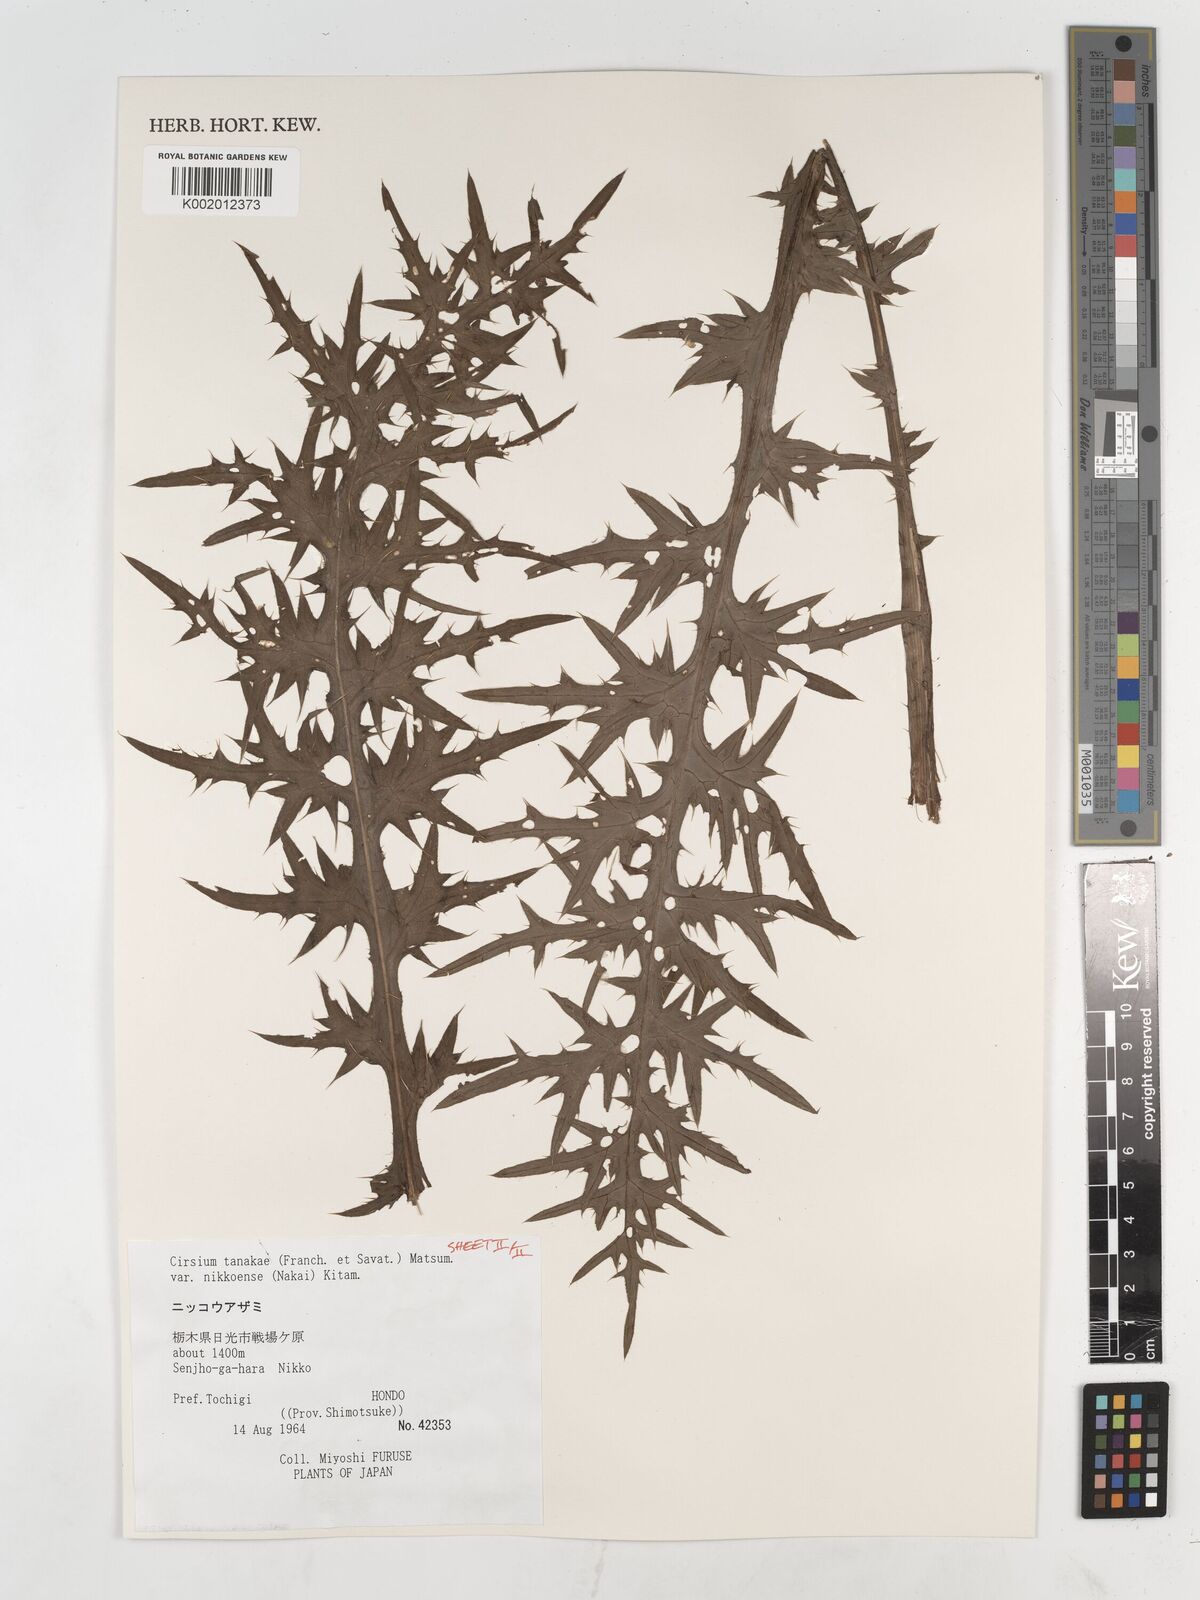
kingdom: Plantae
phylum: Tracheophyta
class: Magnoliopsida
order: Asterales
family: Asteraceae
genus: Cirsium
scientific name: Cirsium nipponicum
